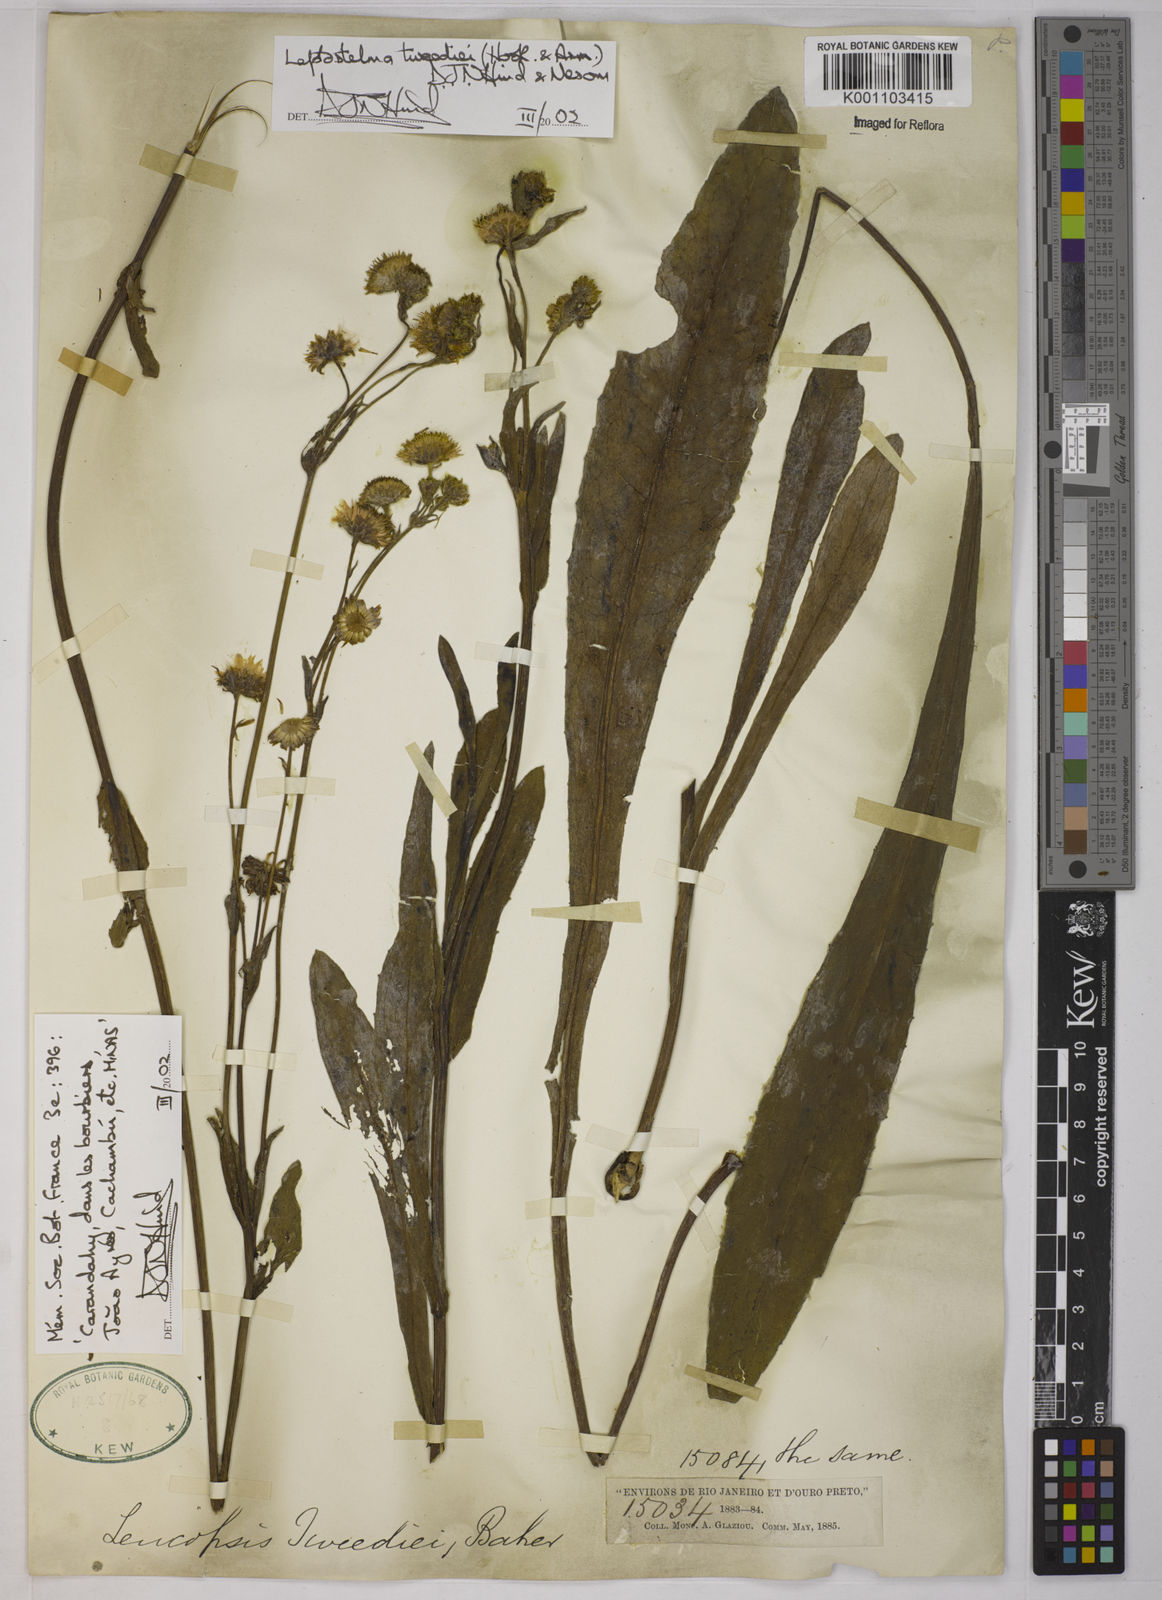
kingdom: Plantae
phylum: Tracheophyta
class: Magnoliopsida
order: Asterales
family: Asteraceae
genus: Leptostelma
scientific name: Leptostelma tweediei
